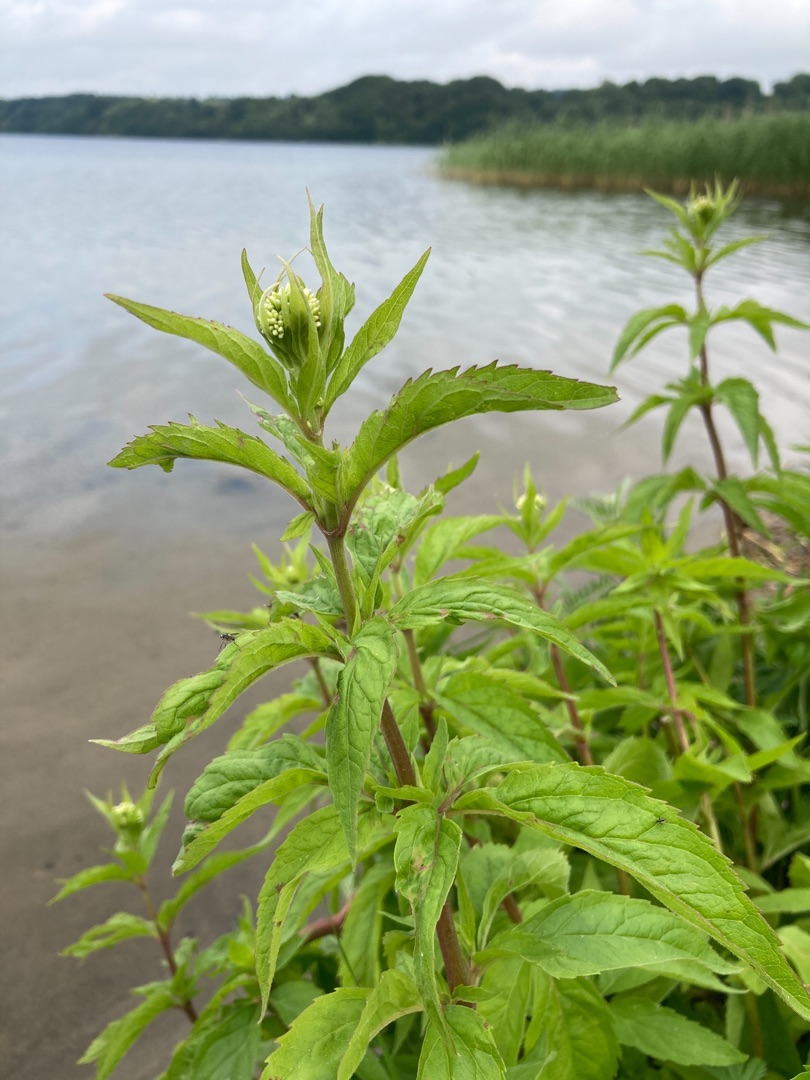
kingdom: Plantae
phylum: Tracheophyta
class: Magnoliopsida
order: Asterales
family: Asteraceae
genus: Eupatorium
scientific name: Eupatorium cannabinum
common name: Hjortetrøst
